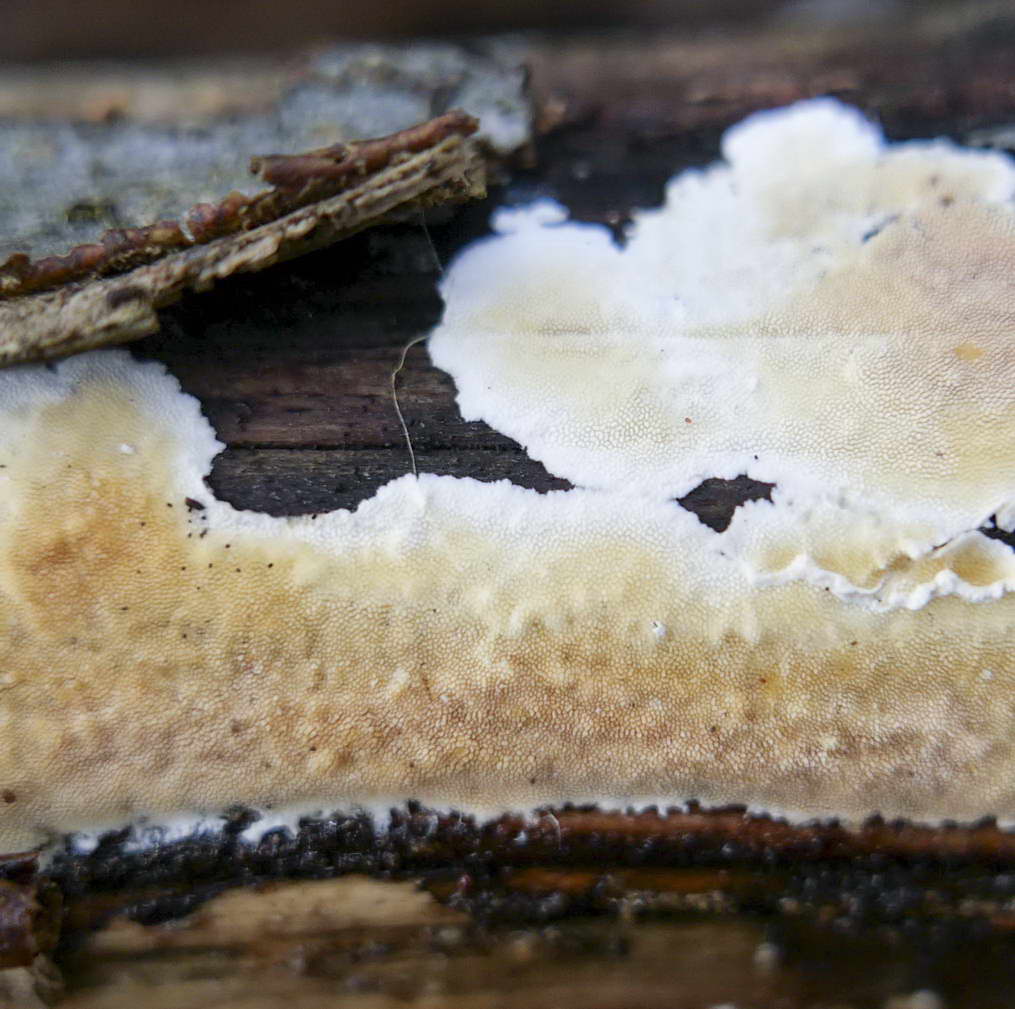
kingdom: Fungi
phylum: Basidiomycota
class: Agaricomycetes
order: Polyporales
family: Steccherinaceae
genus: Steccherinum
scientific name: Steccherinum ochraceum
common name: almindelig skønpig
